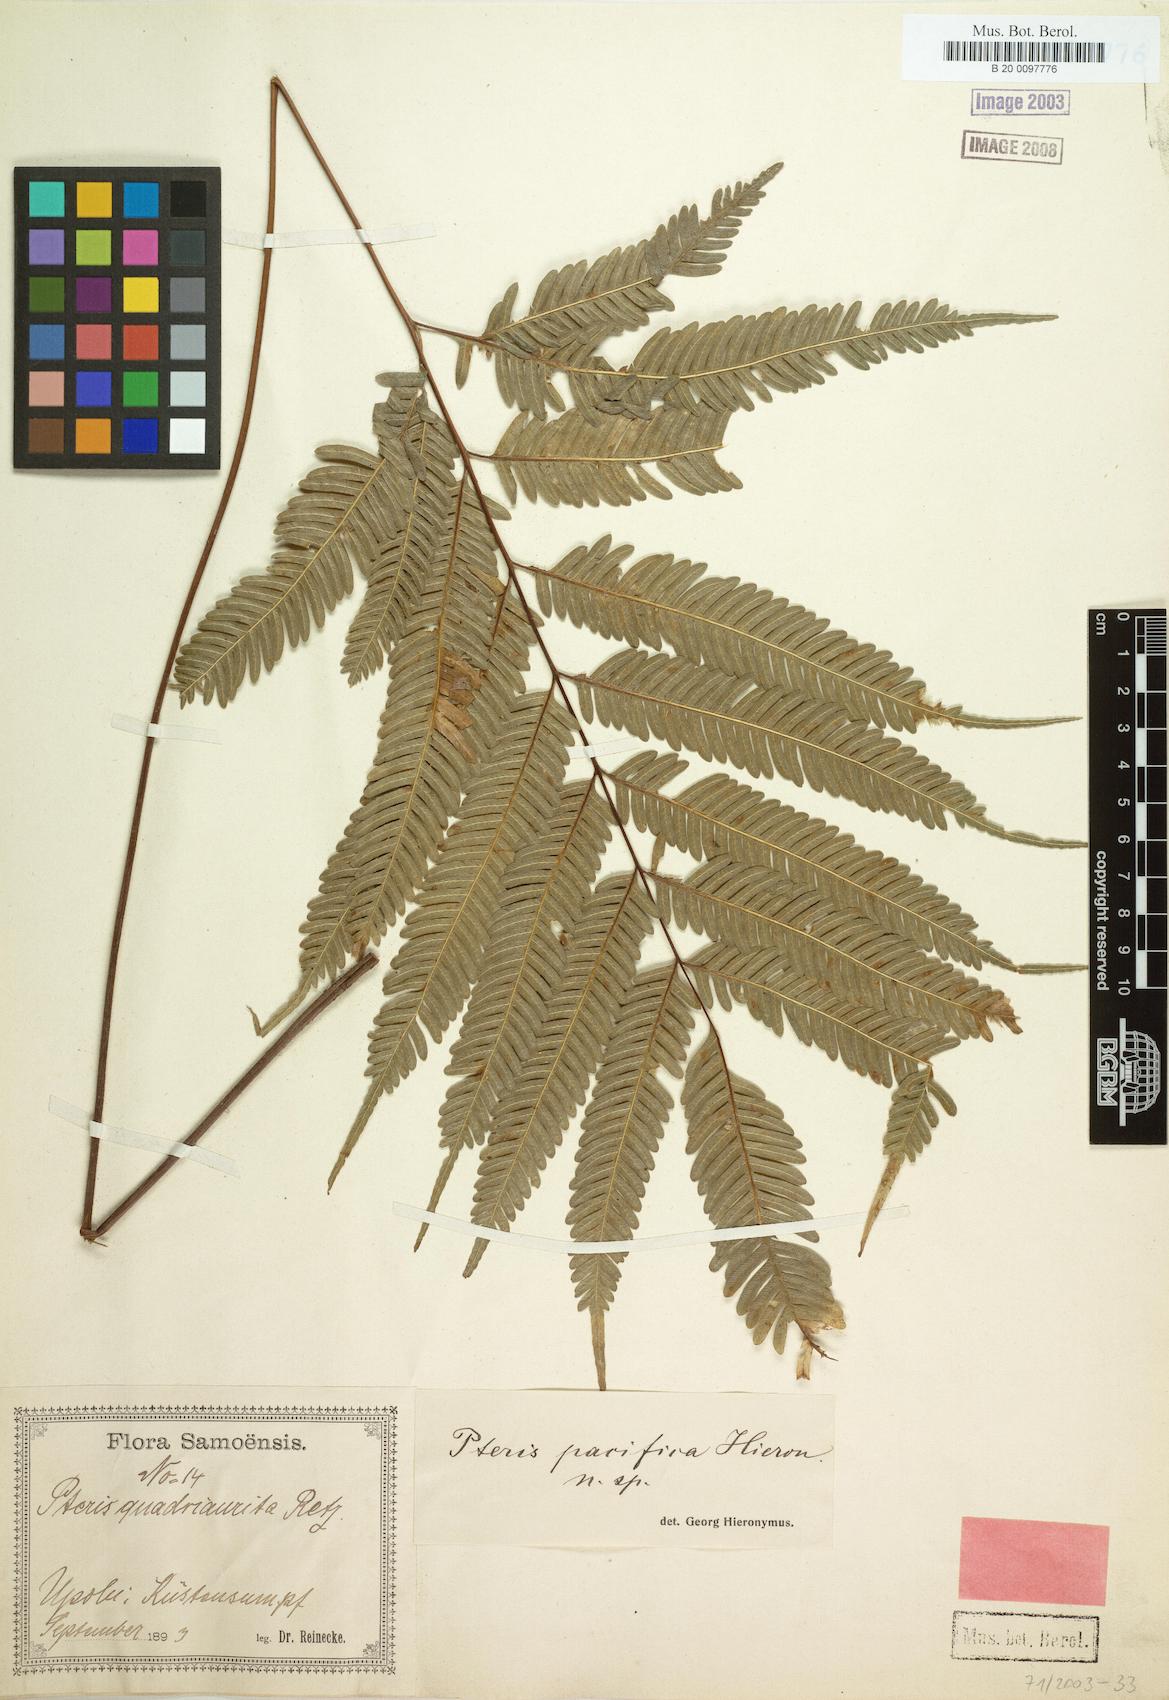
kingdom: Plantae
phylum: Tracheophyta
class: Polypodiopsida
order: Polypodiales
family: Pteridaceae
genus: Pteris
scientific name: Pteris biaurita
